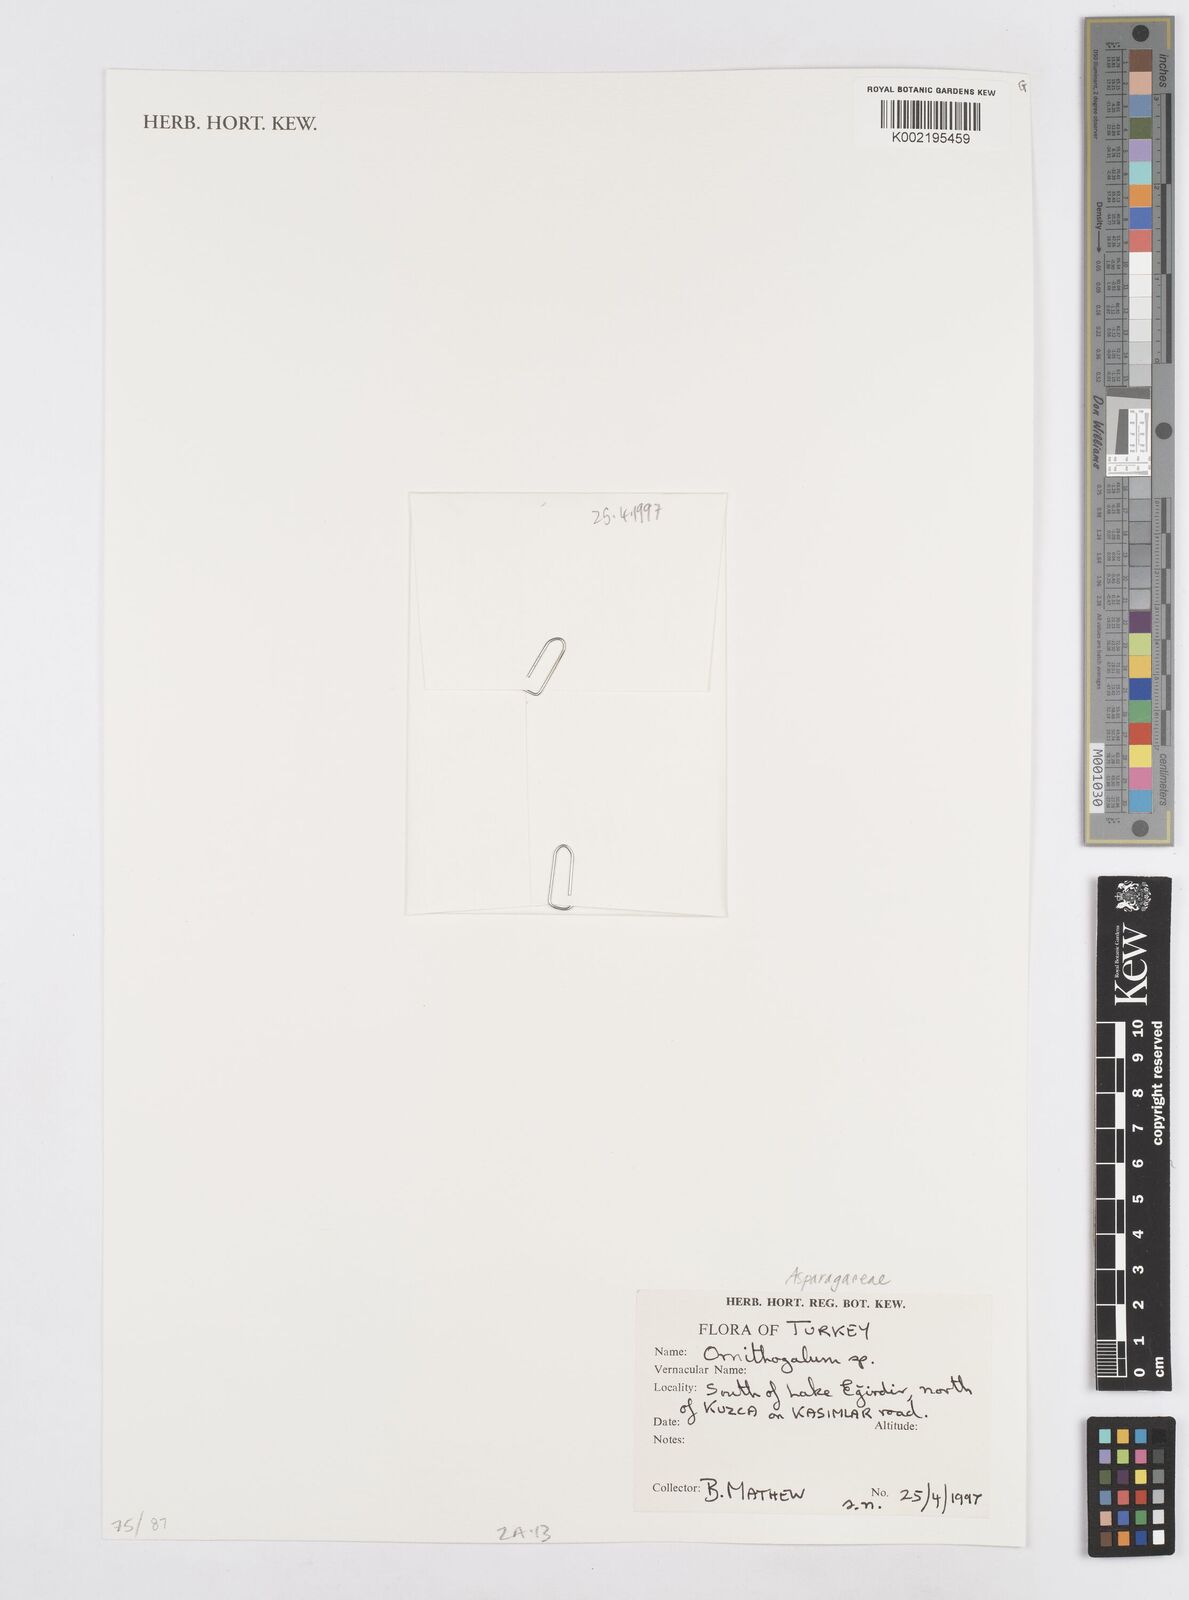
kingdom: Plantae
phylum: Tracheophyta
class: Liliopsida
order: Asparagales
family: Asparagaceae
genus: Ornithogalum
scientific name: Ornithogalum
